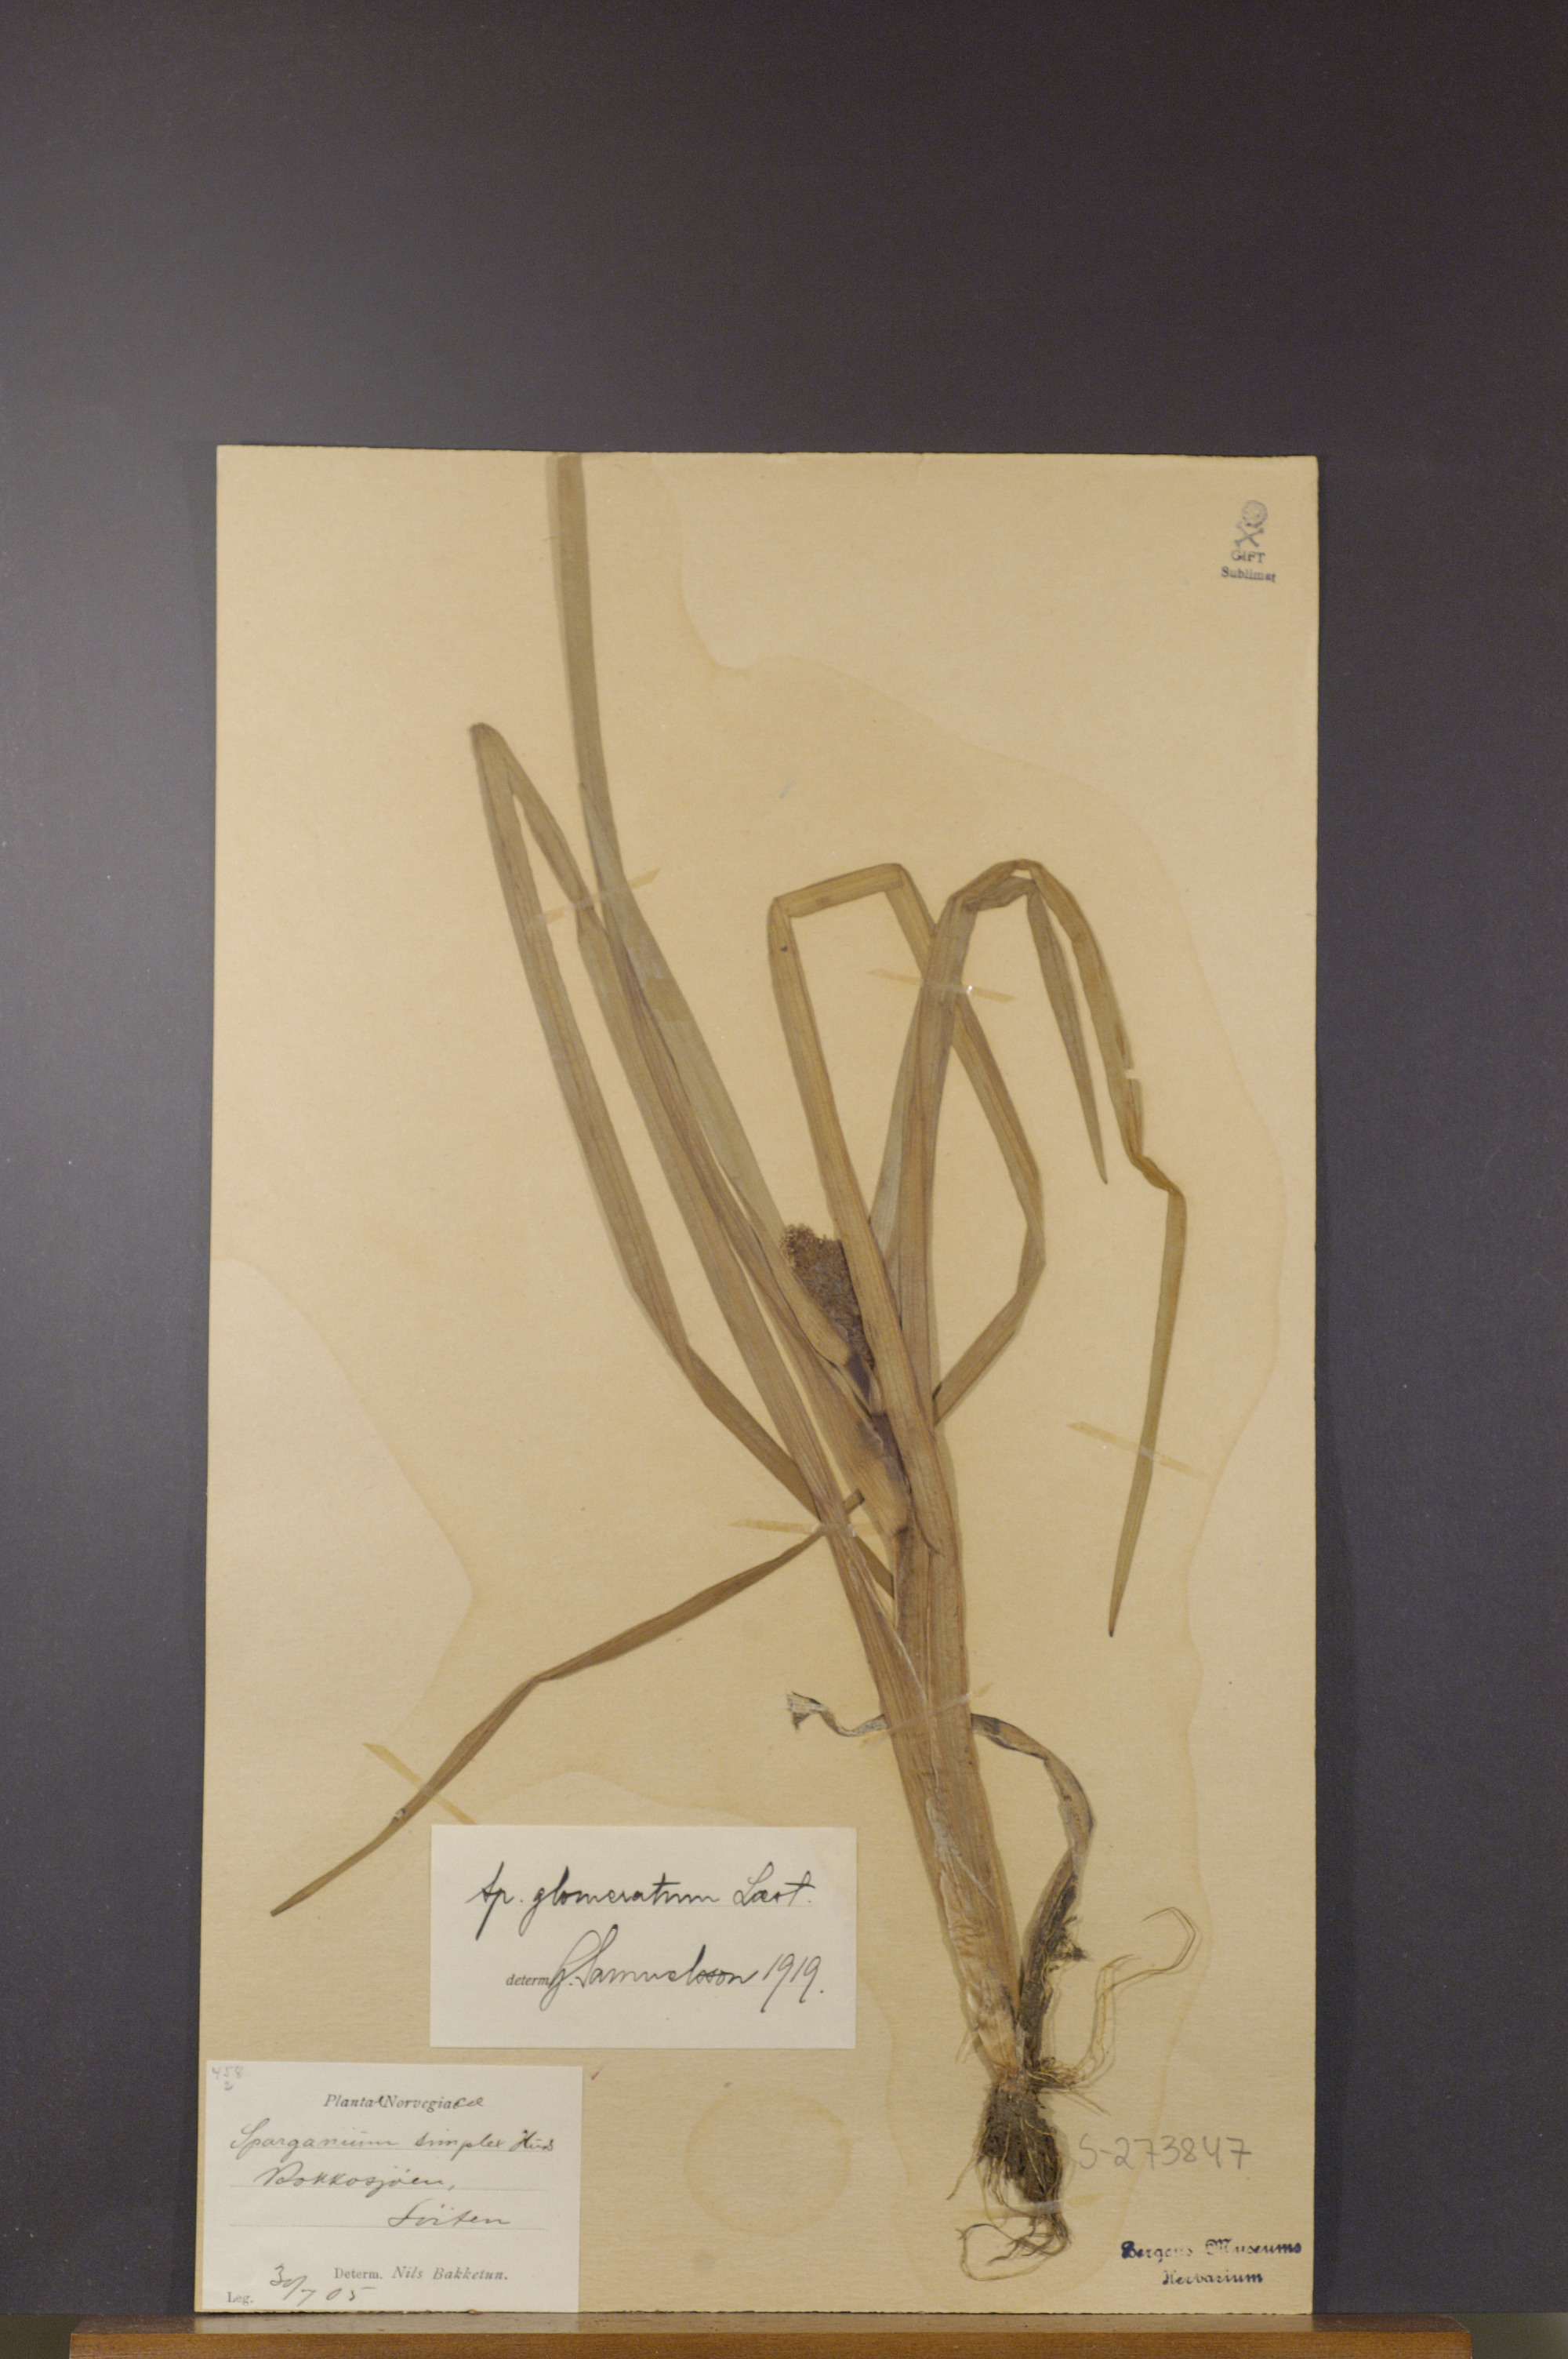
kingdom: Plantae
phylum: Tracheophyta
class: Liliopsida
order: Poales
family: Typhaceae
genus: Sparganium
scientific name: Sparganium glomeratum
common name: Clustered burreed
